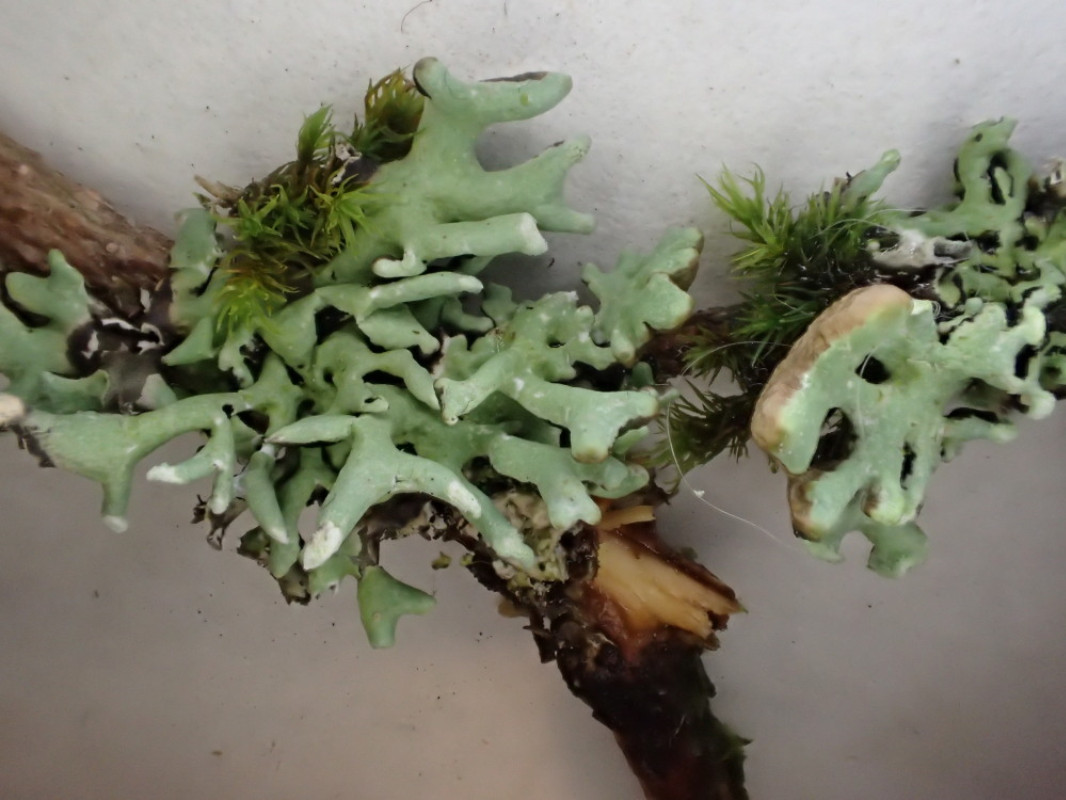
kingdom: Fungi
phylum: Ascomycota
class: Lecanoromycetes
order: Lecanorales
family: Parmeliaceae
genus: Hypogymnia
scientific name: Hypogymnia tubulosa
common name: finger-kvistlav
